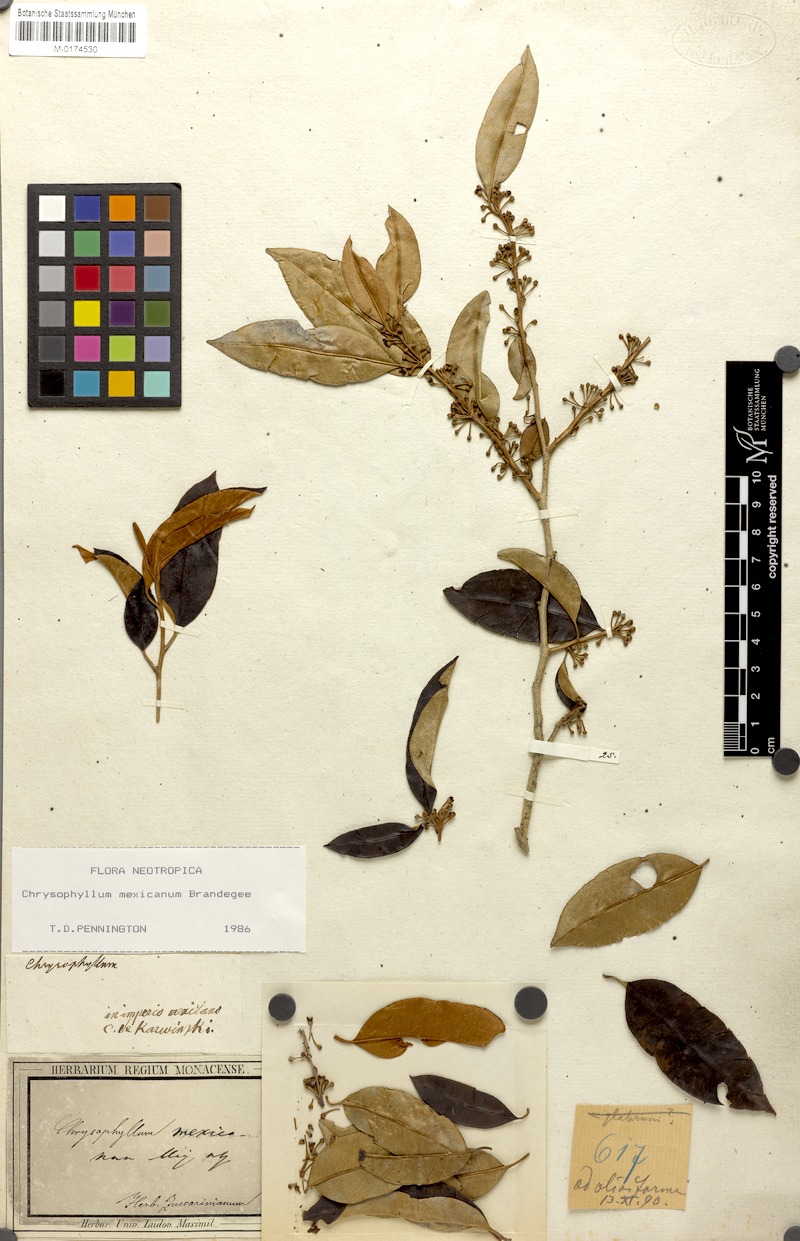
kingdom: Plantae
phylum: Tracheophyta
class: Magnoliopsida
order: Ericales
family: Sapotaceae
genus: Chrysophyllum
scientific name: Chrysophyllum mexicanum
